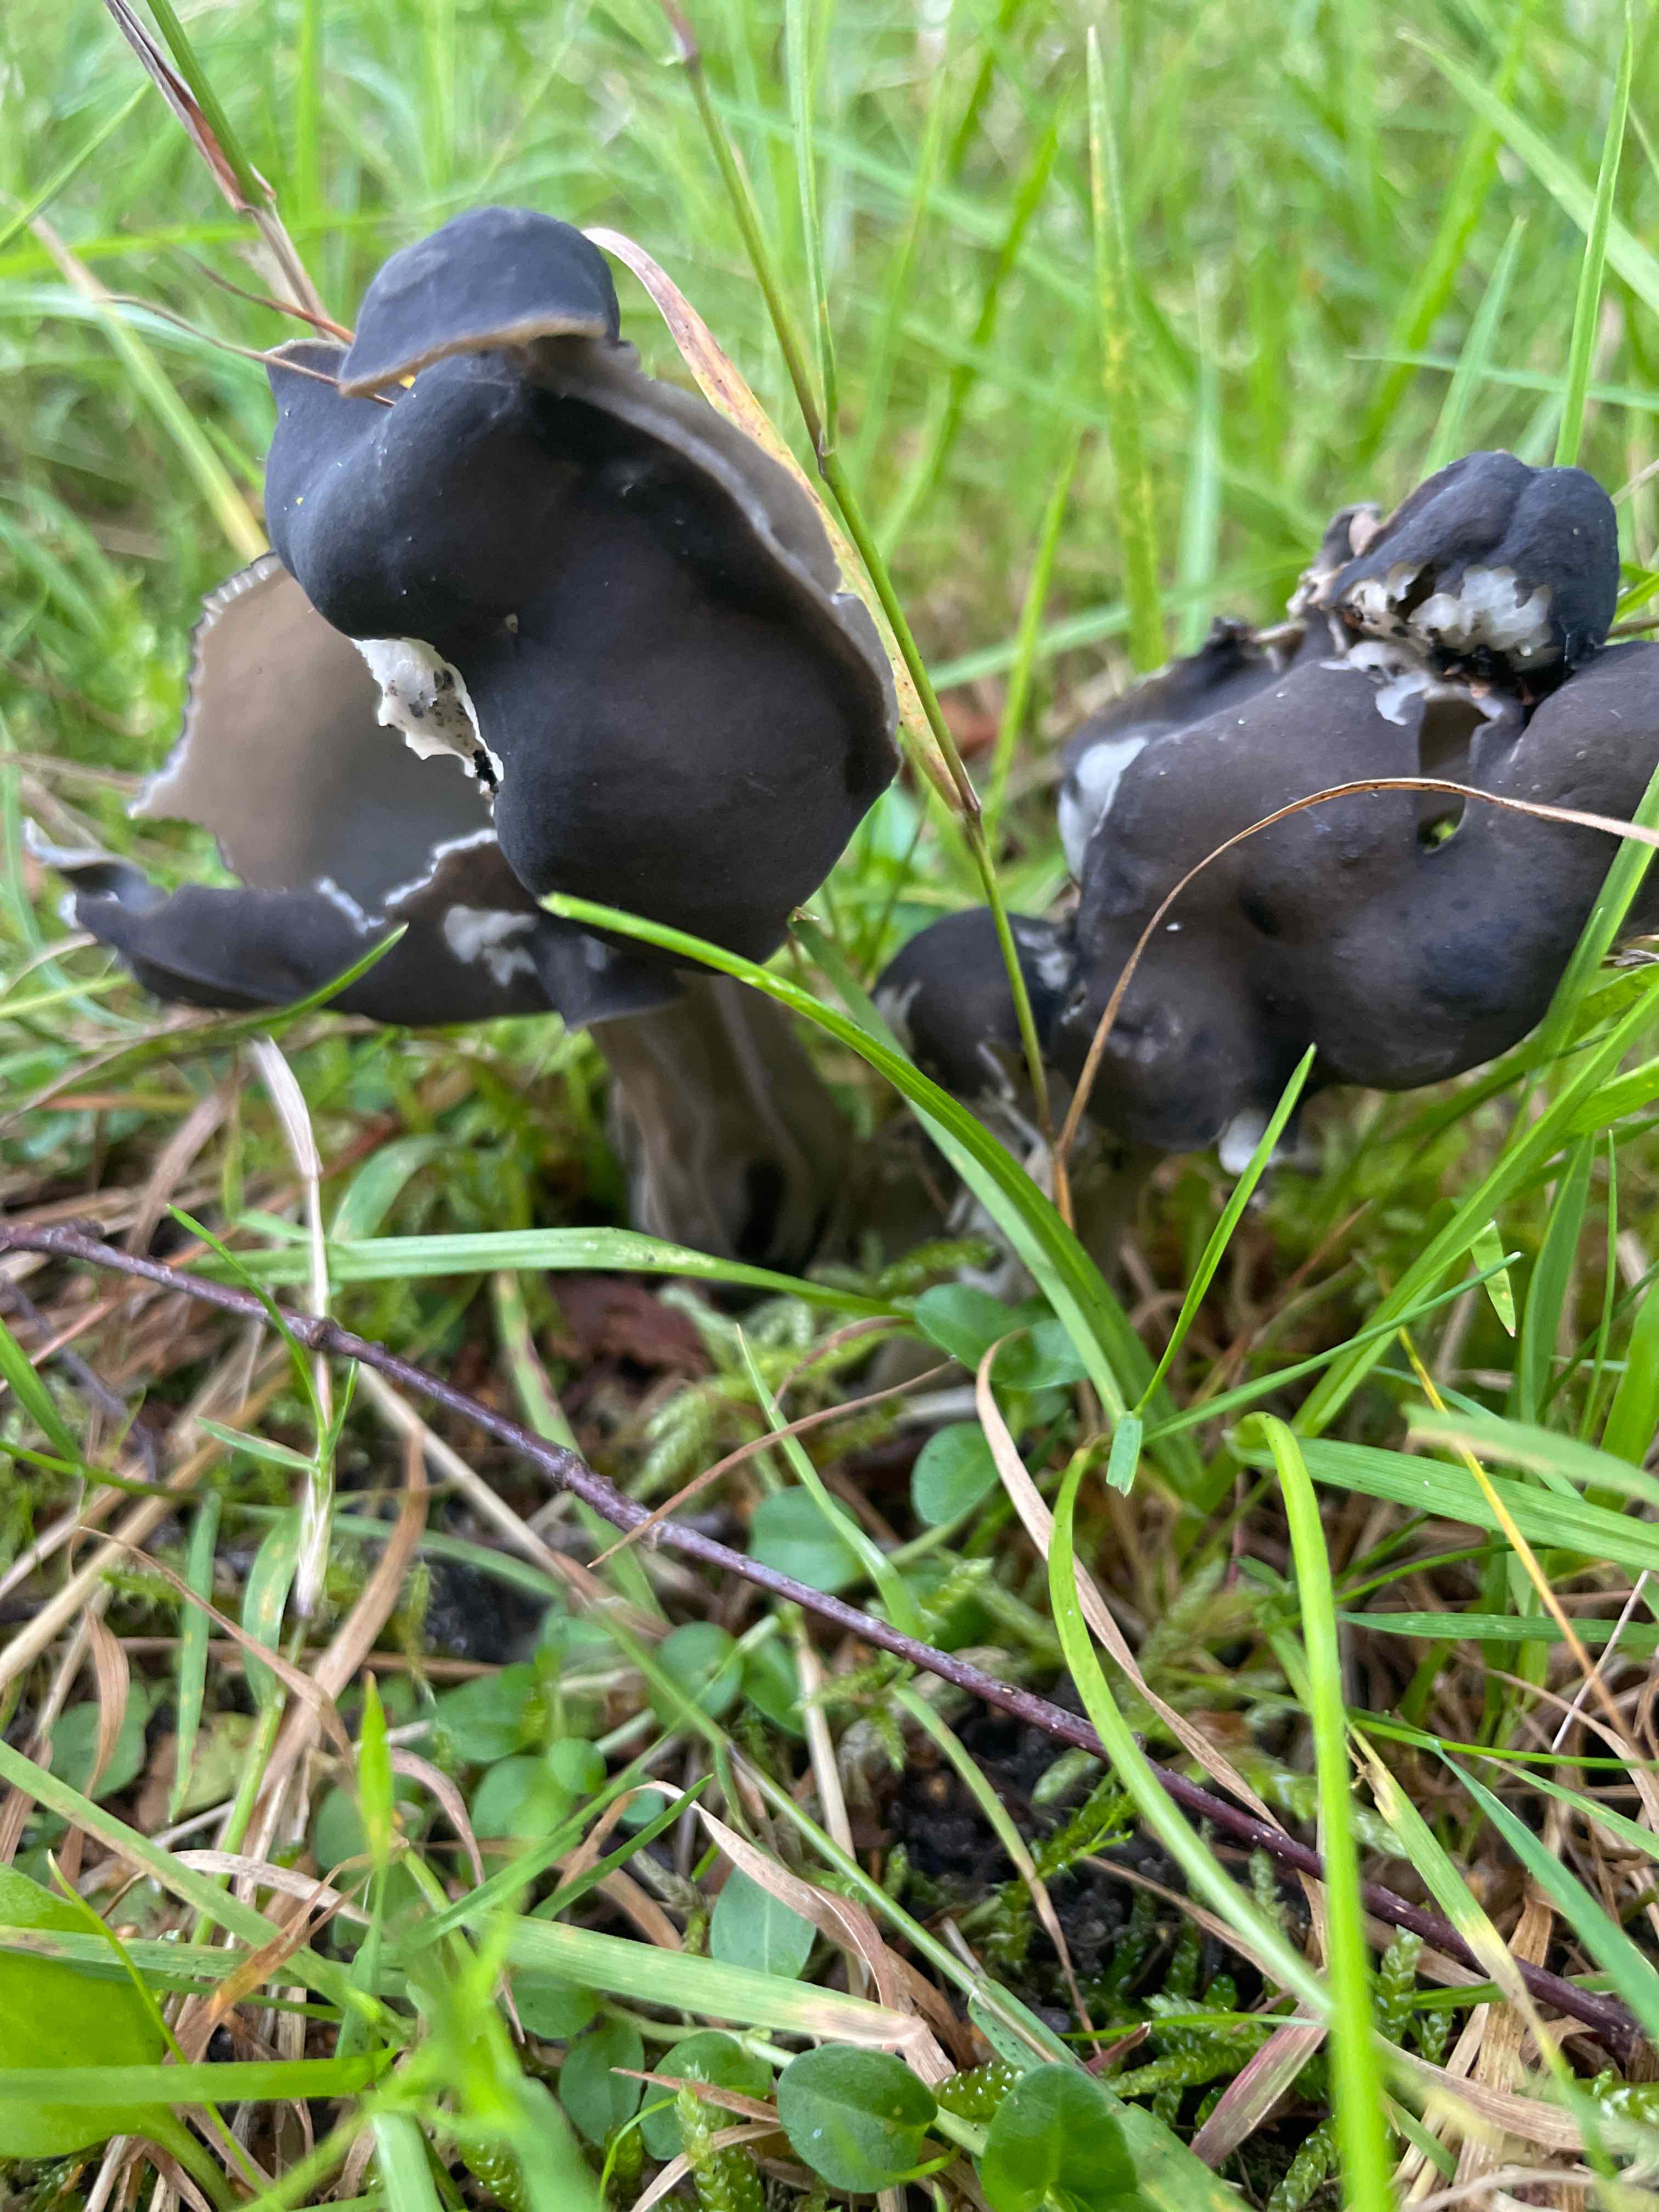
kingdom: Fungi
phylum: Ascomycota
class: Pezizomycetes
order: Pezizales
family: Helvellaceae
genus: Helvella
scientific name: Helvella lacunosa
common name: grubet foldhat
